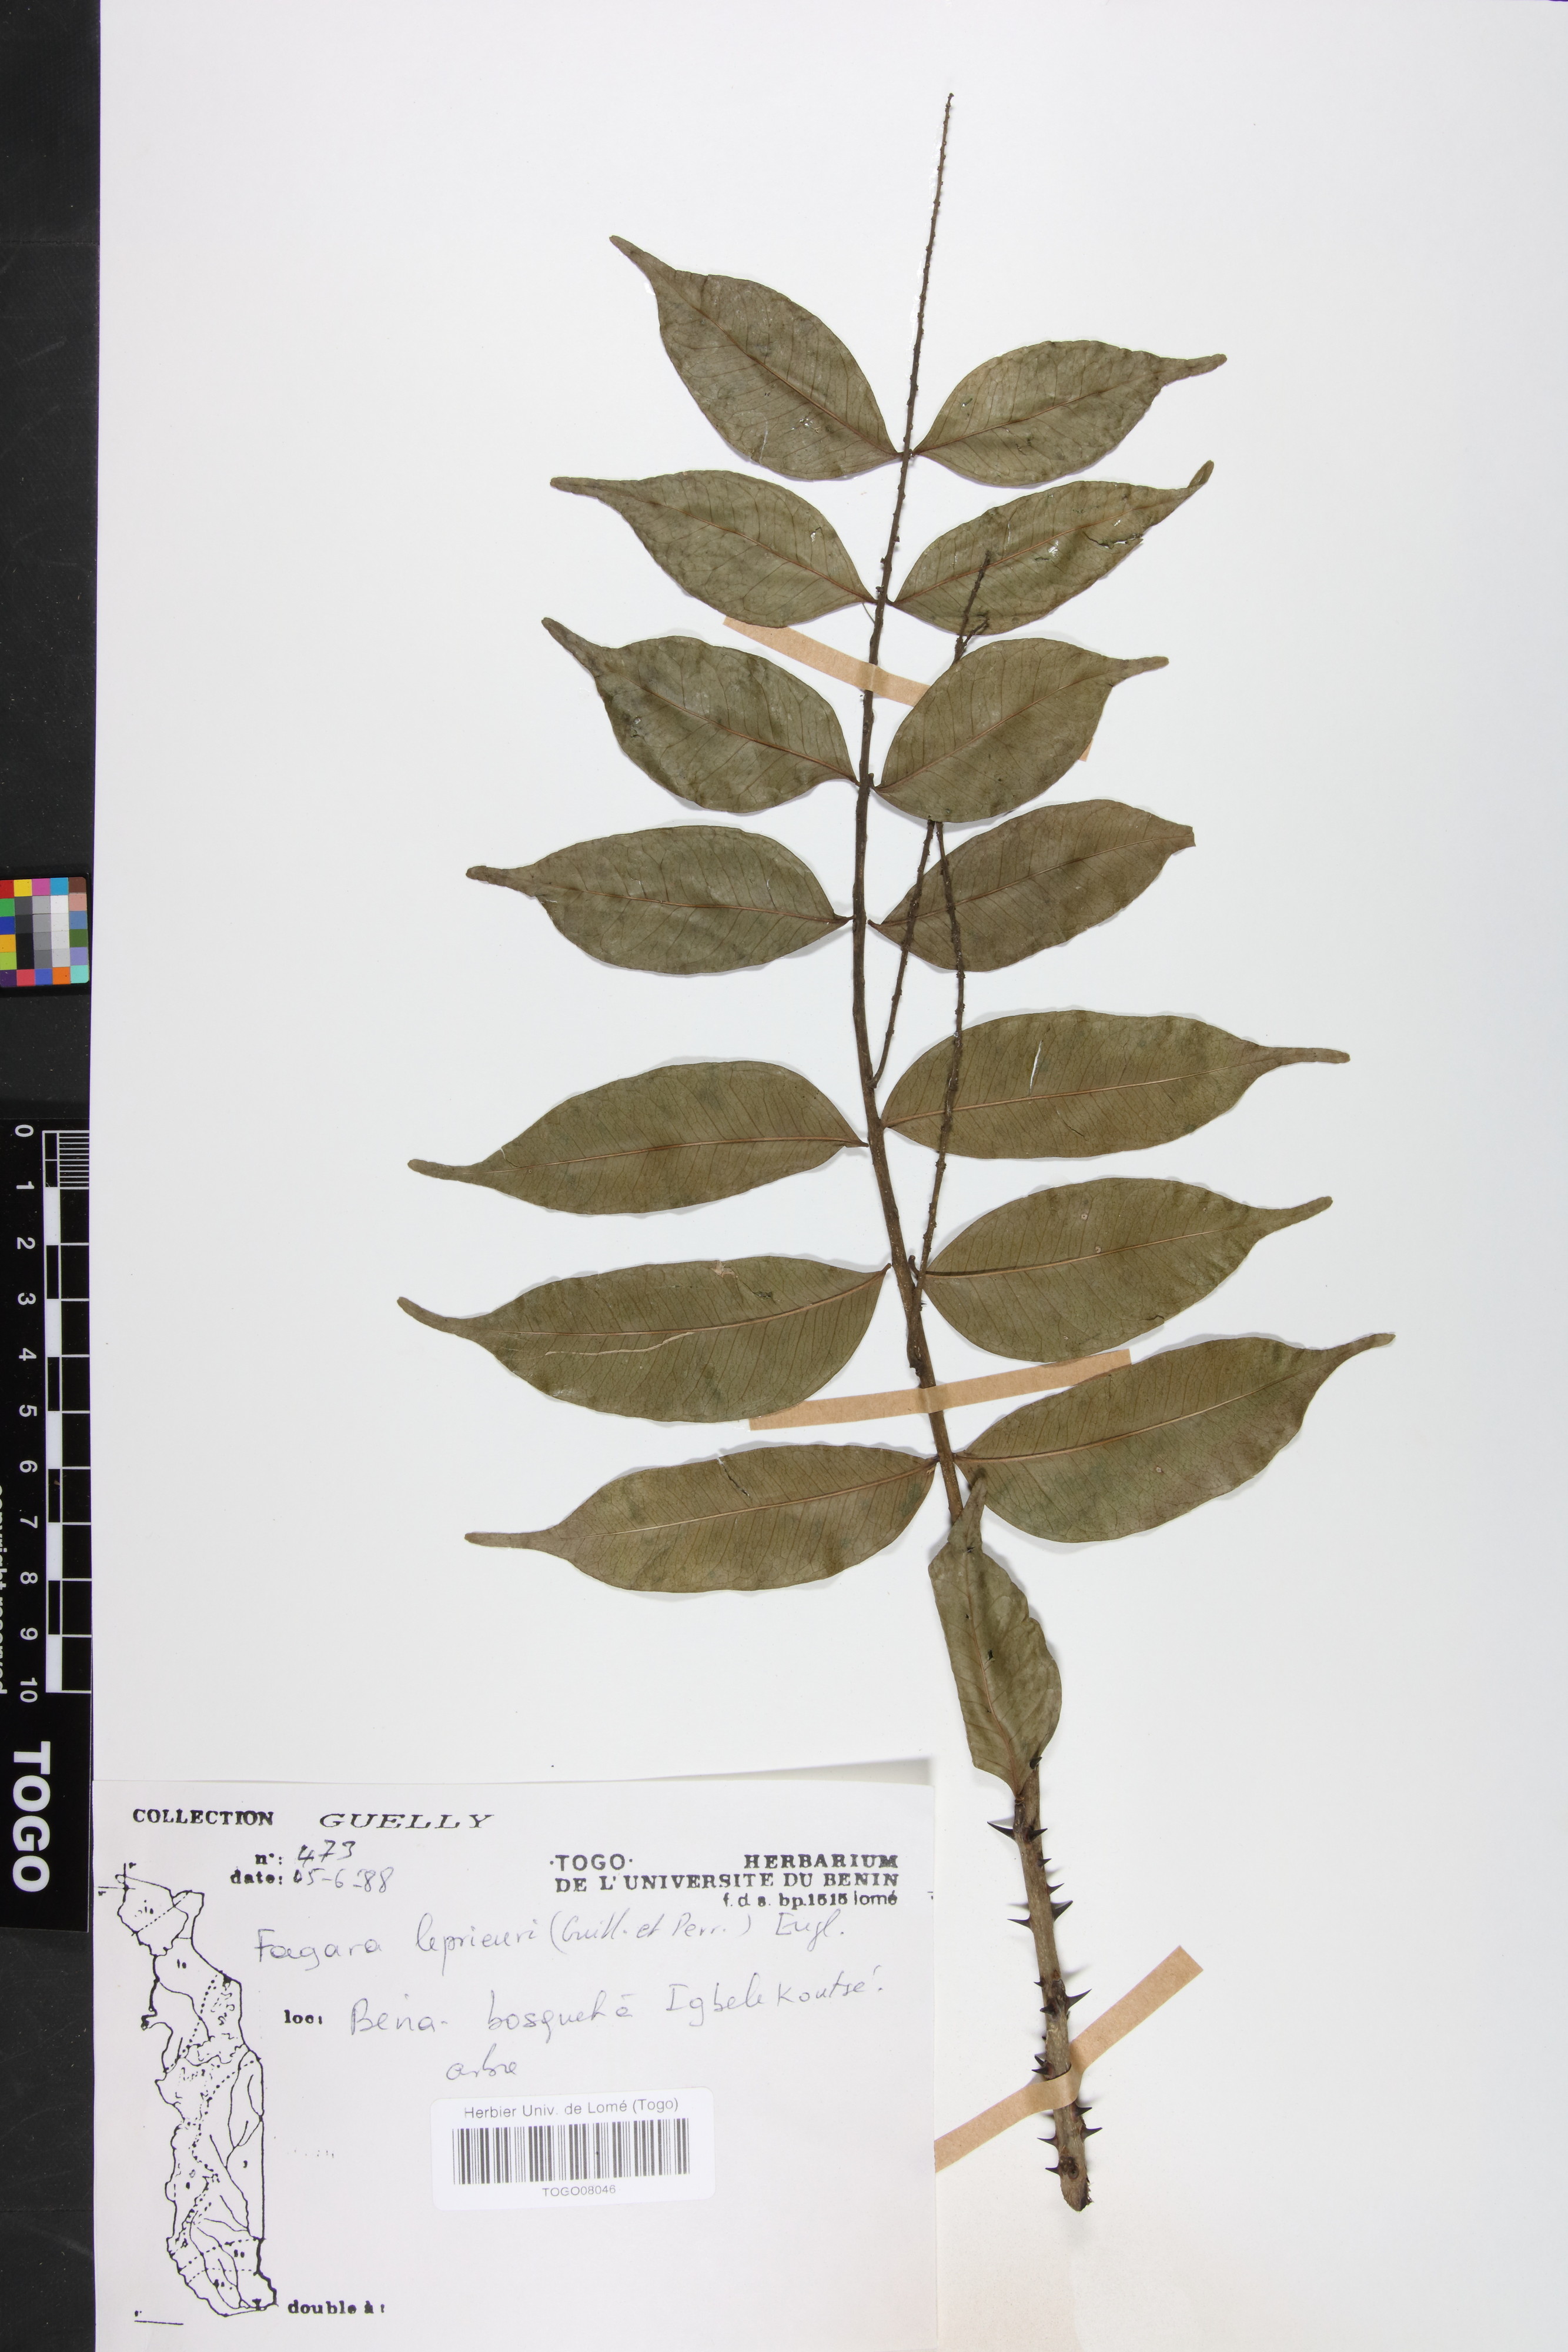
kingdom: Plantae
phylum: Tracheophyta
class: Magnoliopsida
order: Sapindales
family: Rutaceae
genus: Zanthoxylum
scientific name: Zanthoxylum
